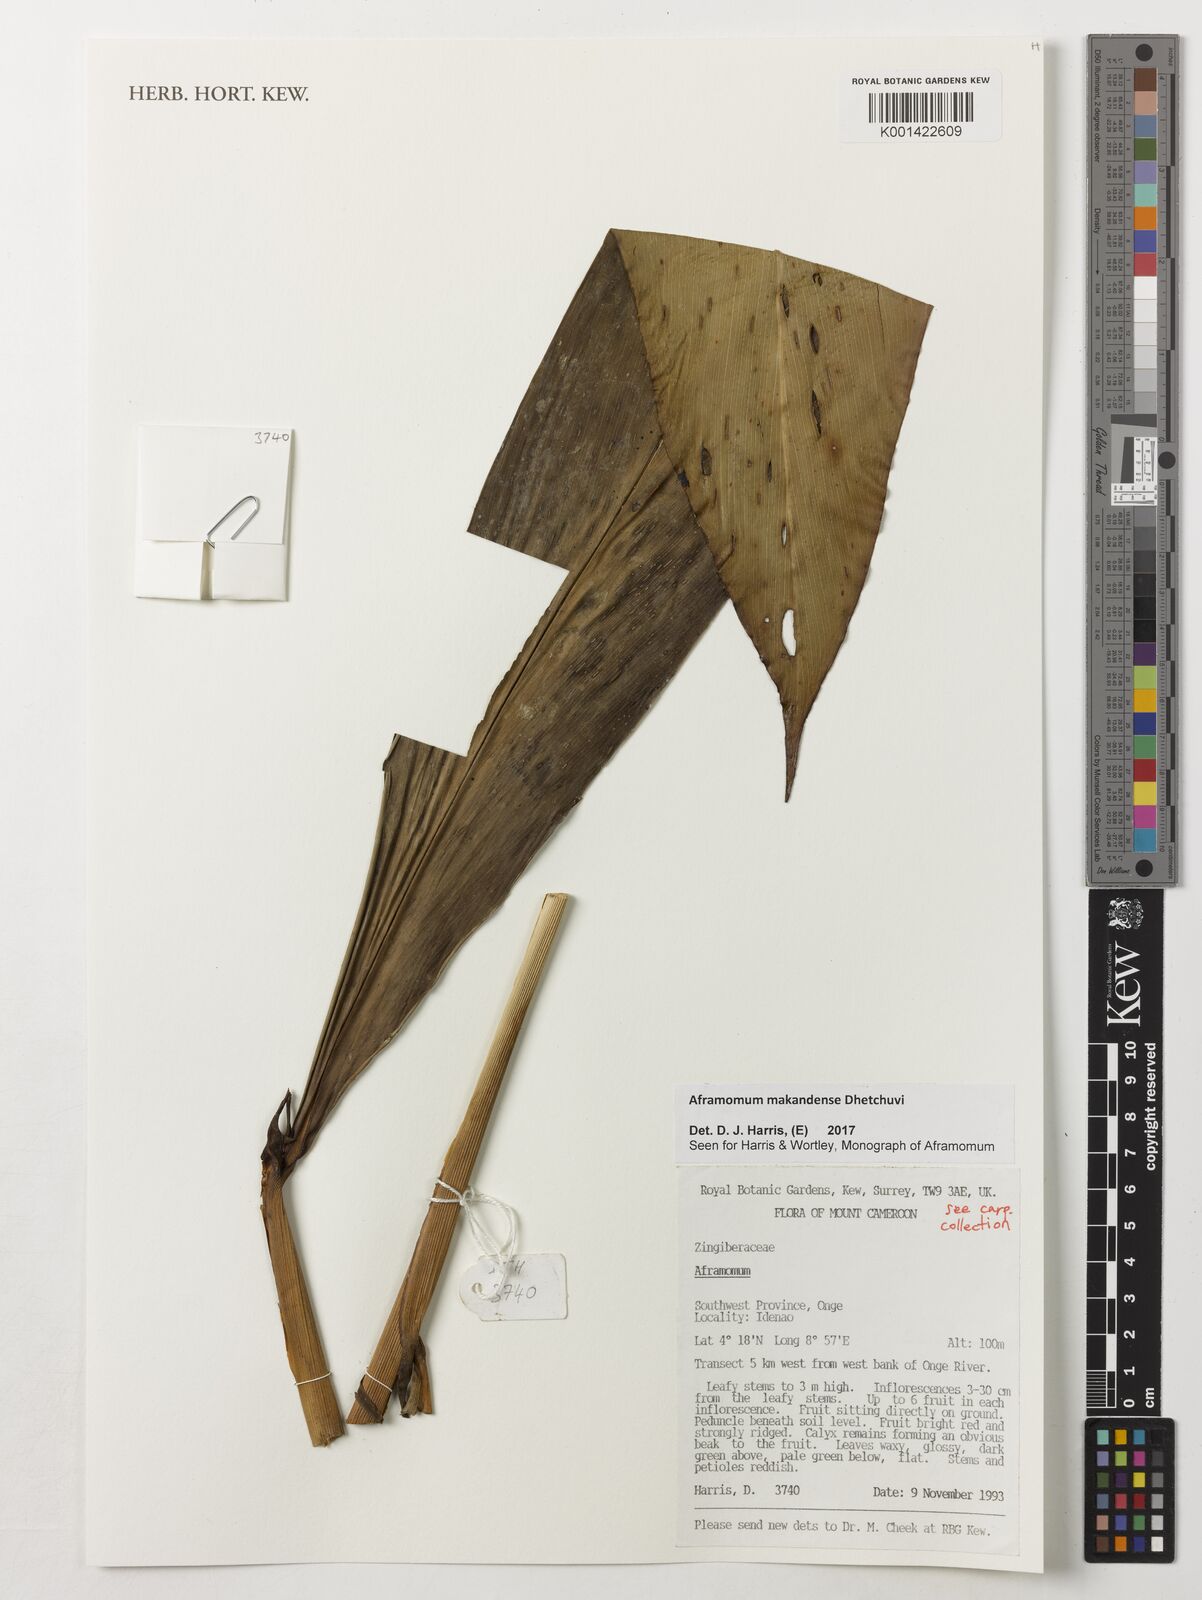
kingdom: Plantae
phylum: Tracheophyta
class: Liliopsida
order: Zingiberales
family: Zingiberaceae
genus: Aframomum
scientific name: Aframomum makandensis
